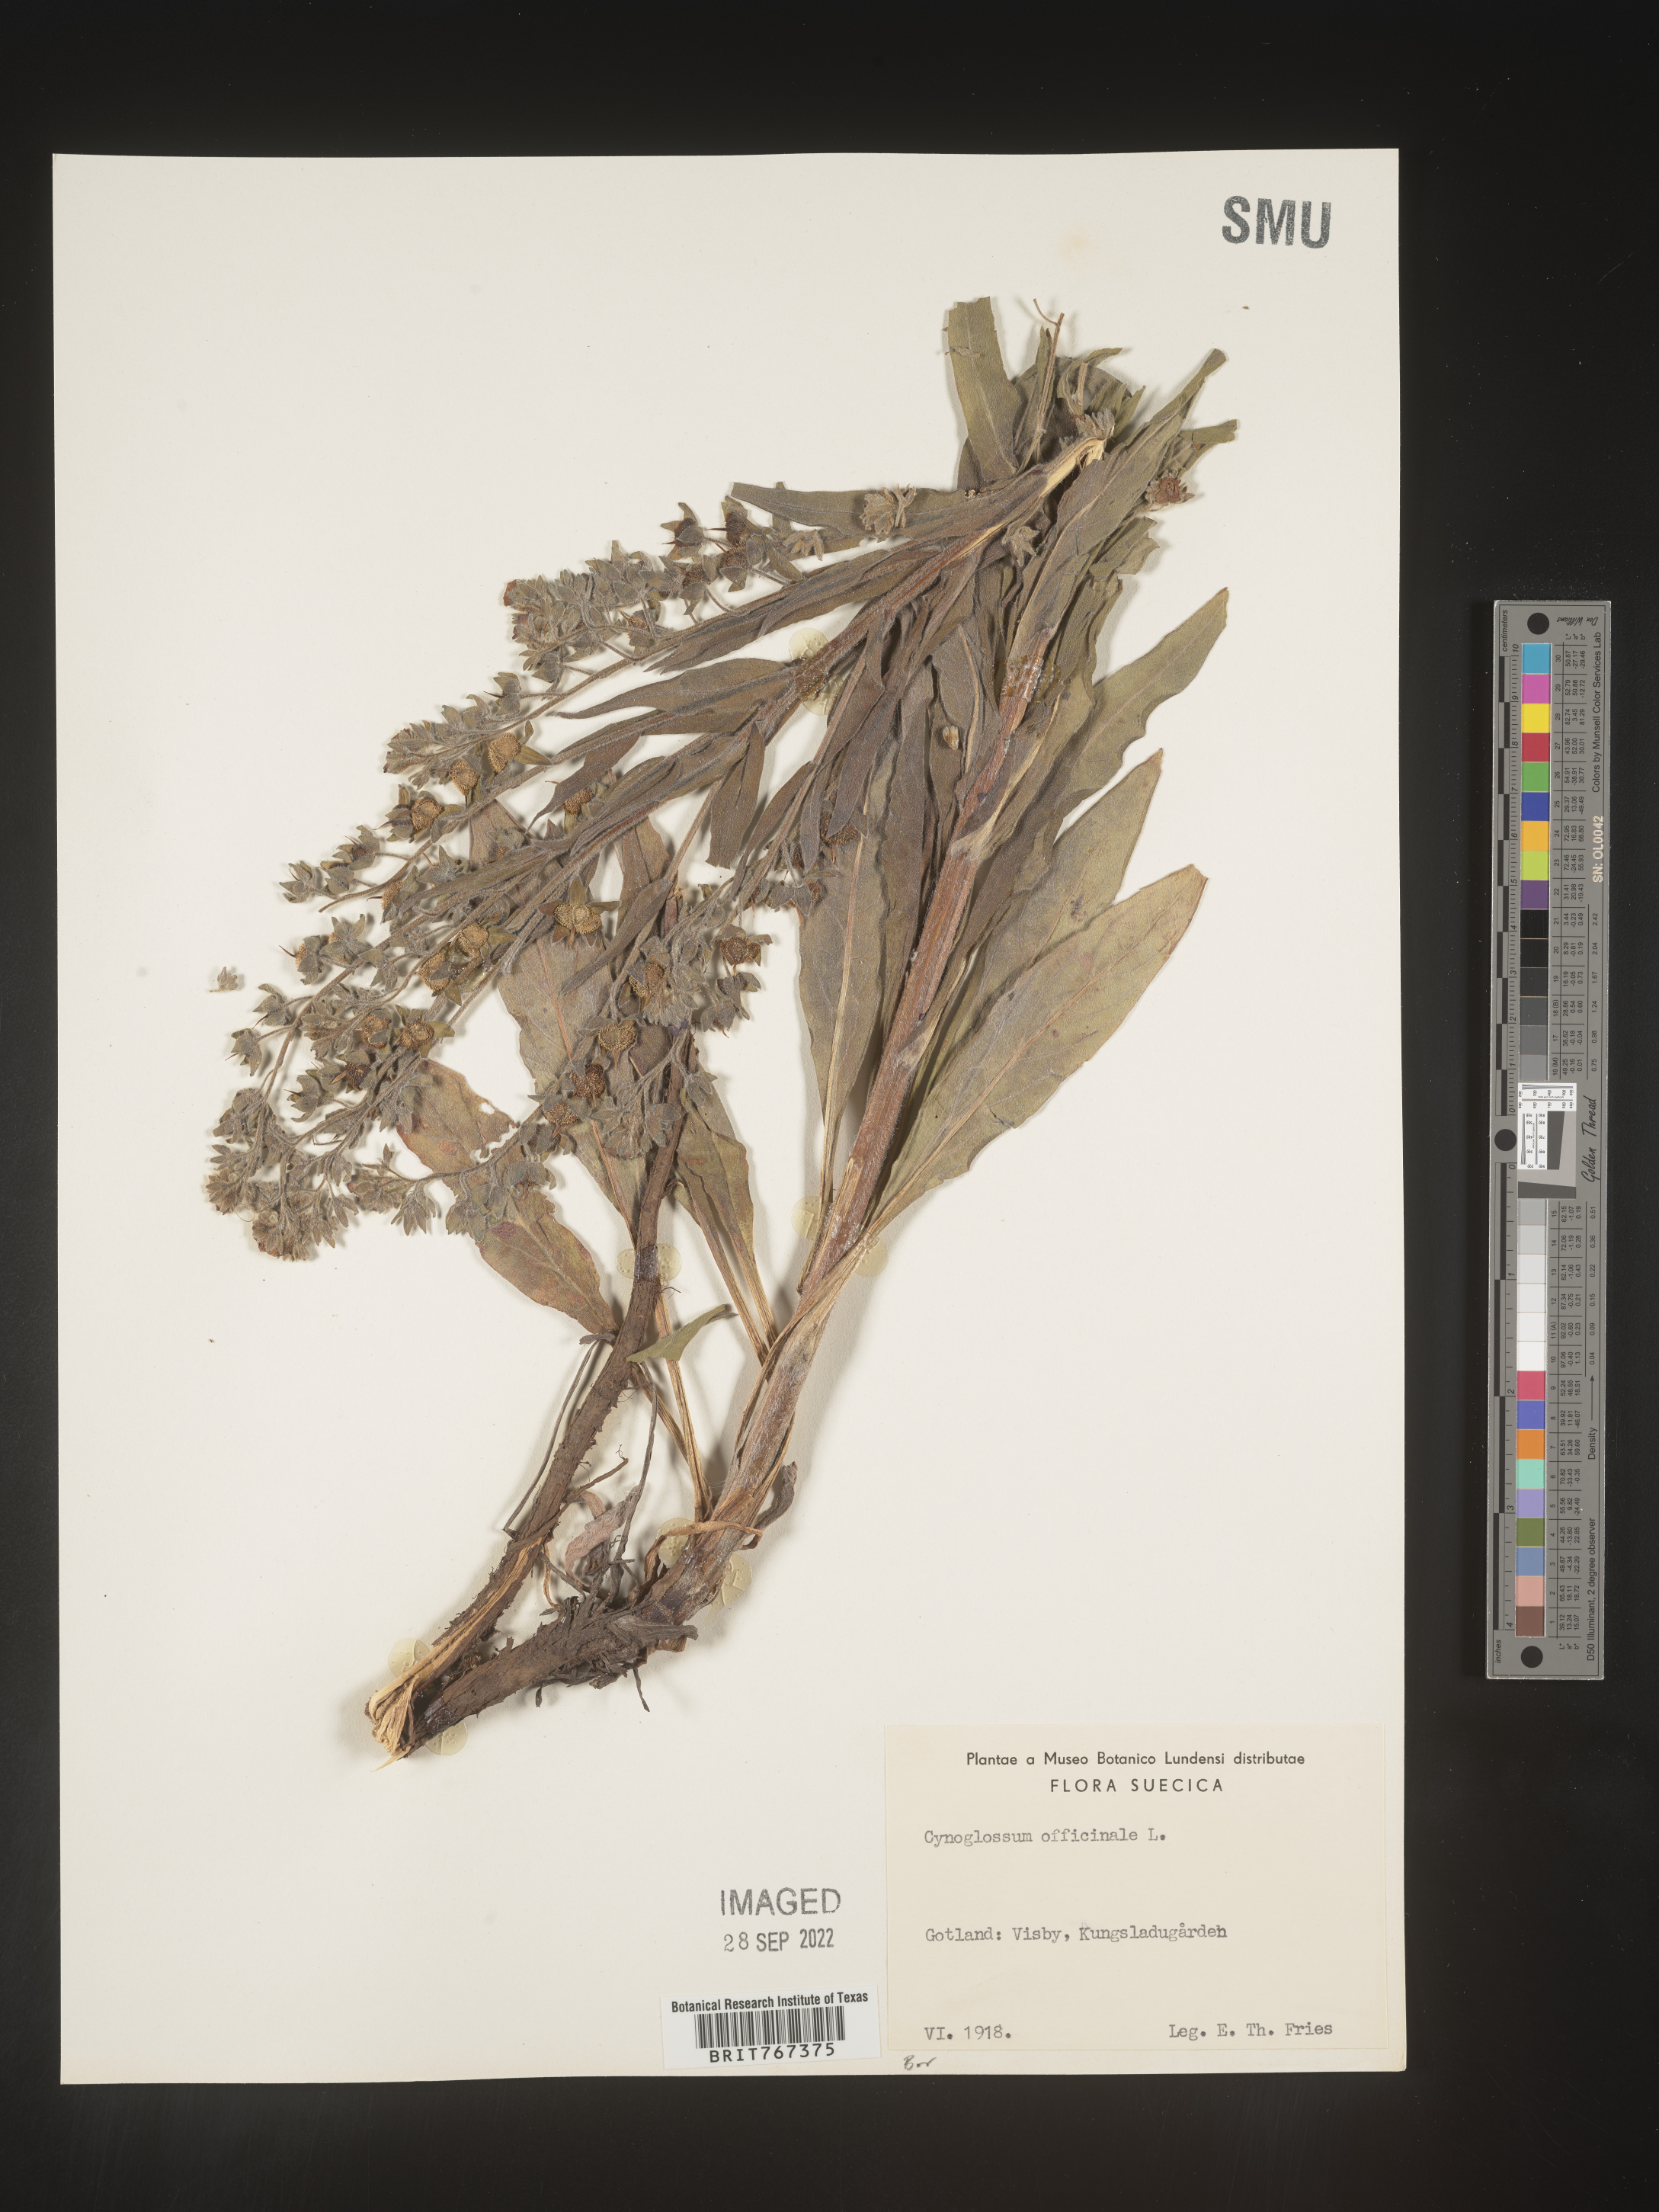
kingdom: Plantae
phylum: Tracheophyta
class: Magnoliopsida
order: Boraginales
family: Boraginaceae
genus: Cynoglossum
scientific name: Cynoglossum
